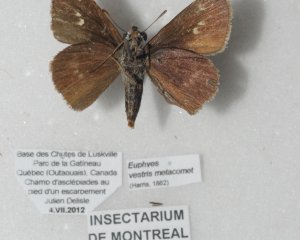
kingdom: Animalia
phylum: Arthropoda
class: Insecta
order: Lepidoptera
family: Hesperiidae
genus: Euphyes
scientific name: Euphyes vestris
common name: Dun Skipper
